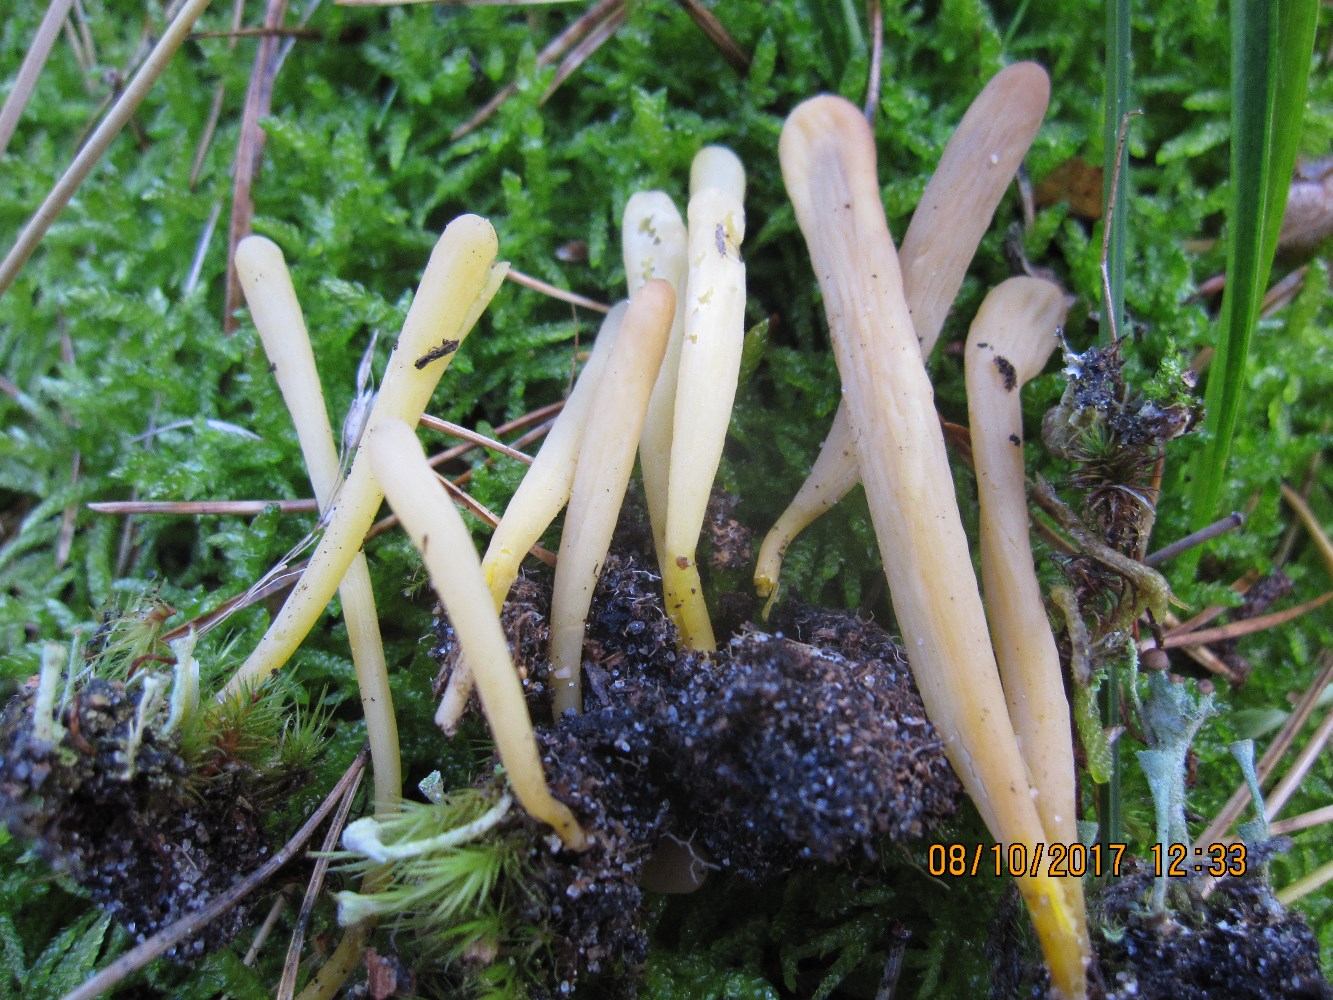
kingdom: Fungi
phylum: Basidiomycota
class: Agaricomycetes
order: Agaricales
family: Clavariaceae
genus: Clavaria
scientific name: Clavaria argillacea
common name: lerfarvet køllesvamp
